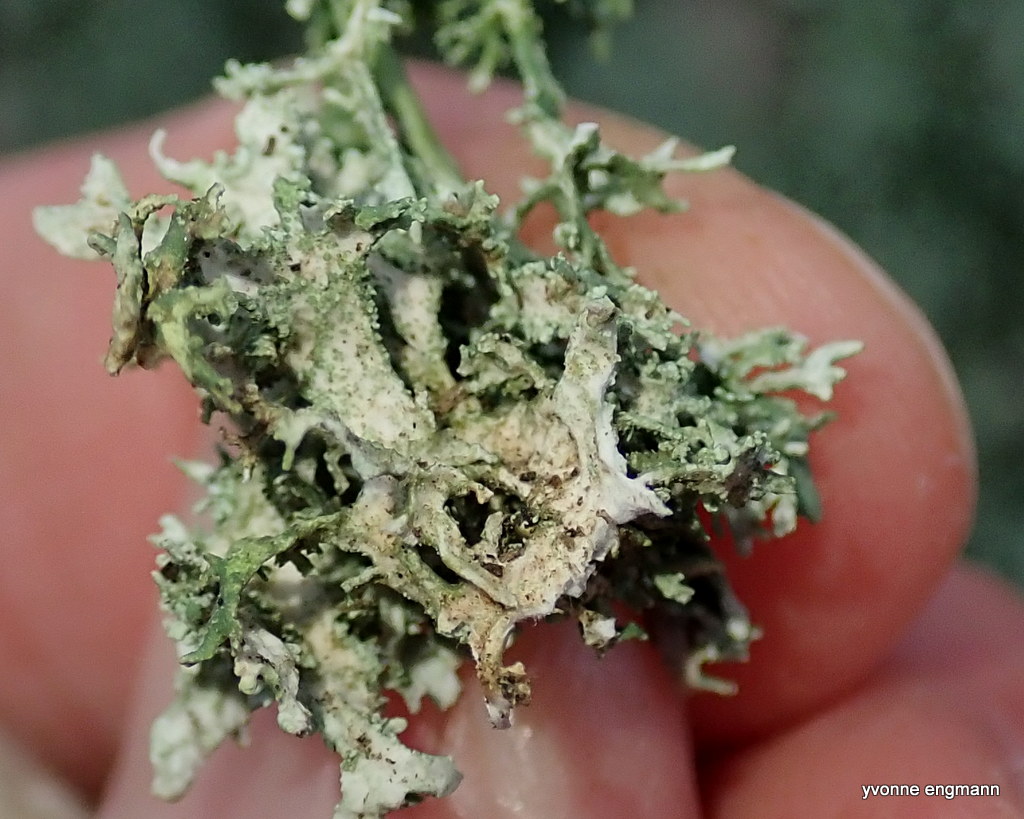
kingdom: Fungi
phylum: Ascomycota
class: Lecanoromycetes
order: Lecanorales
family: Parmeliaceae
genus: Evernia
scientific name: Evernia prunastri
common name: almindelig slåenlav
